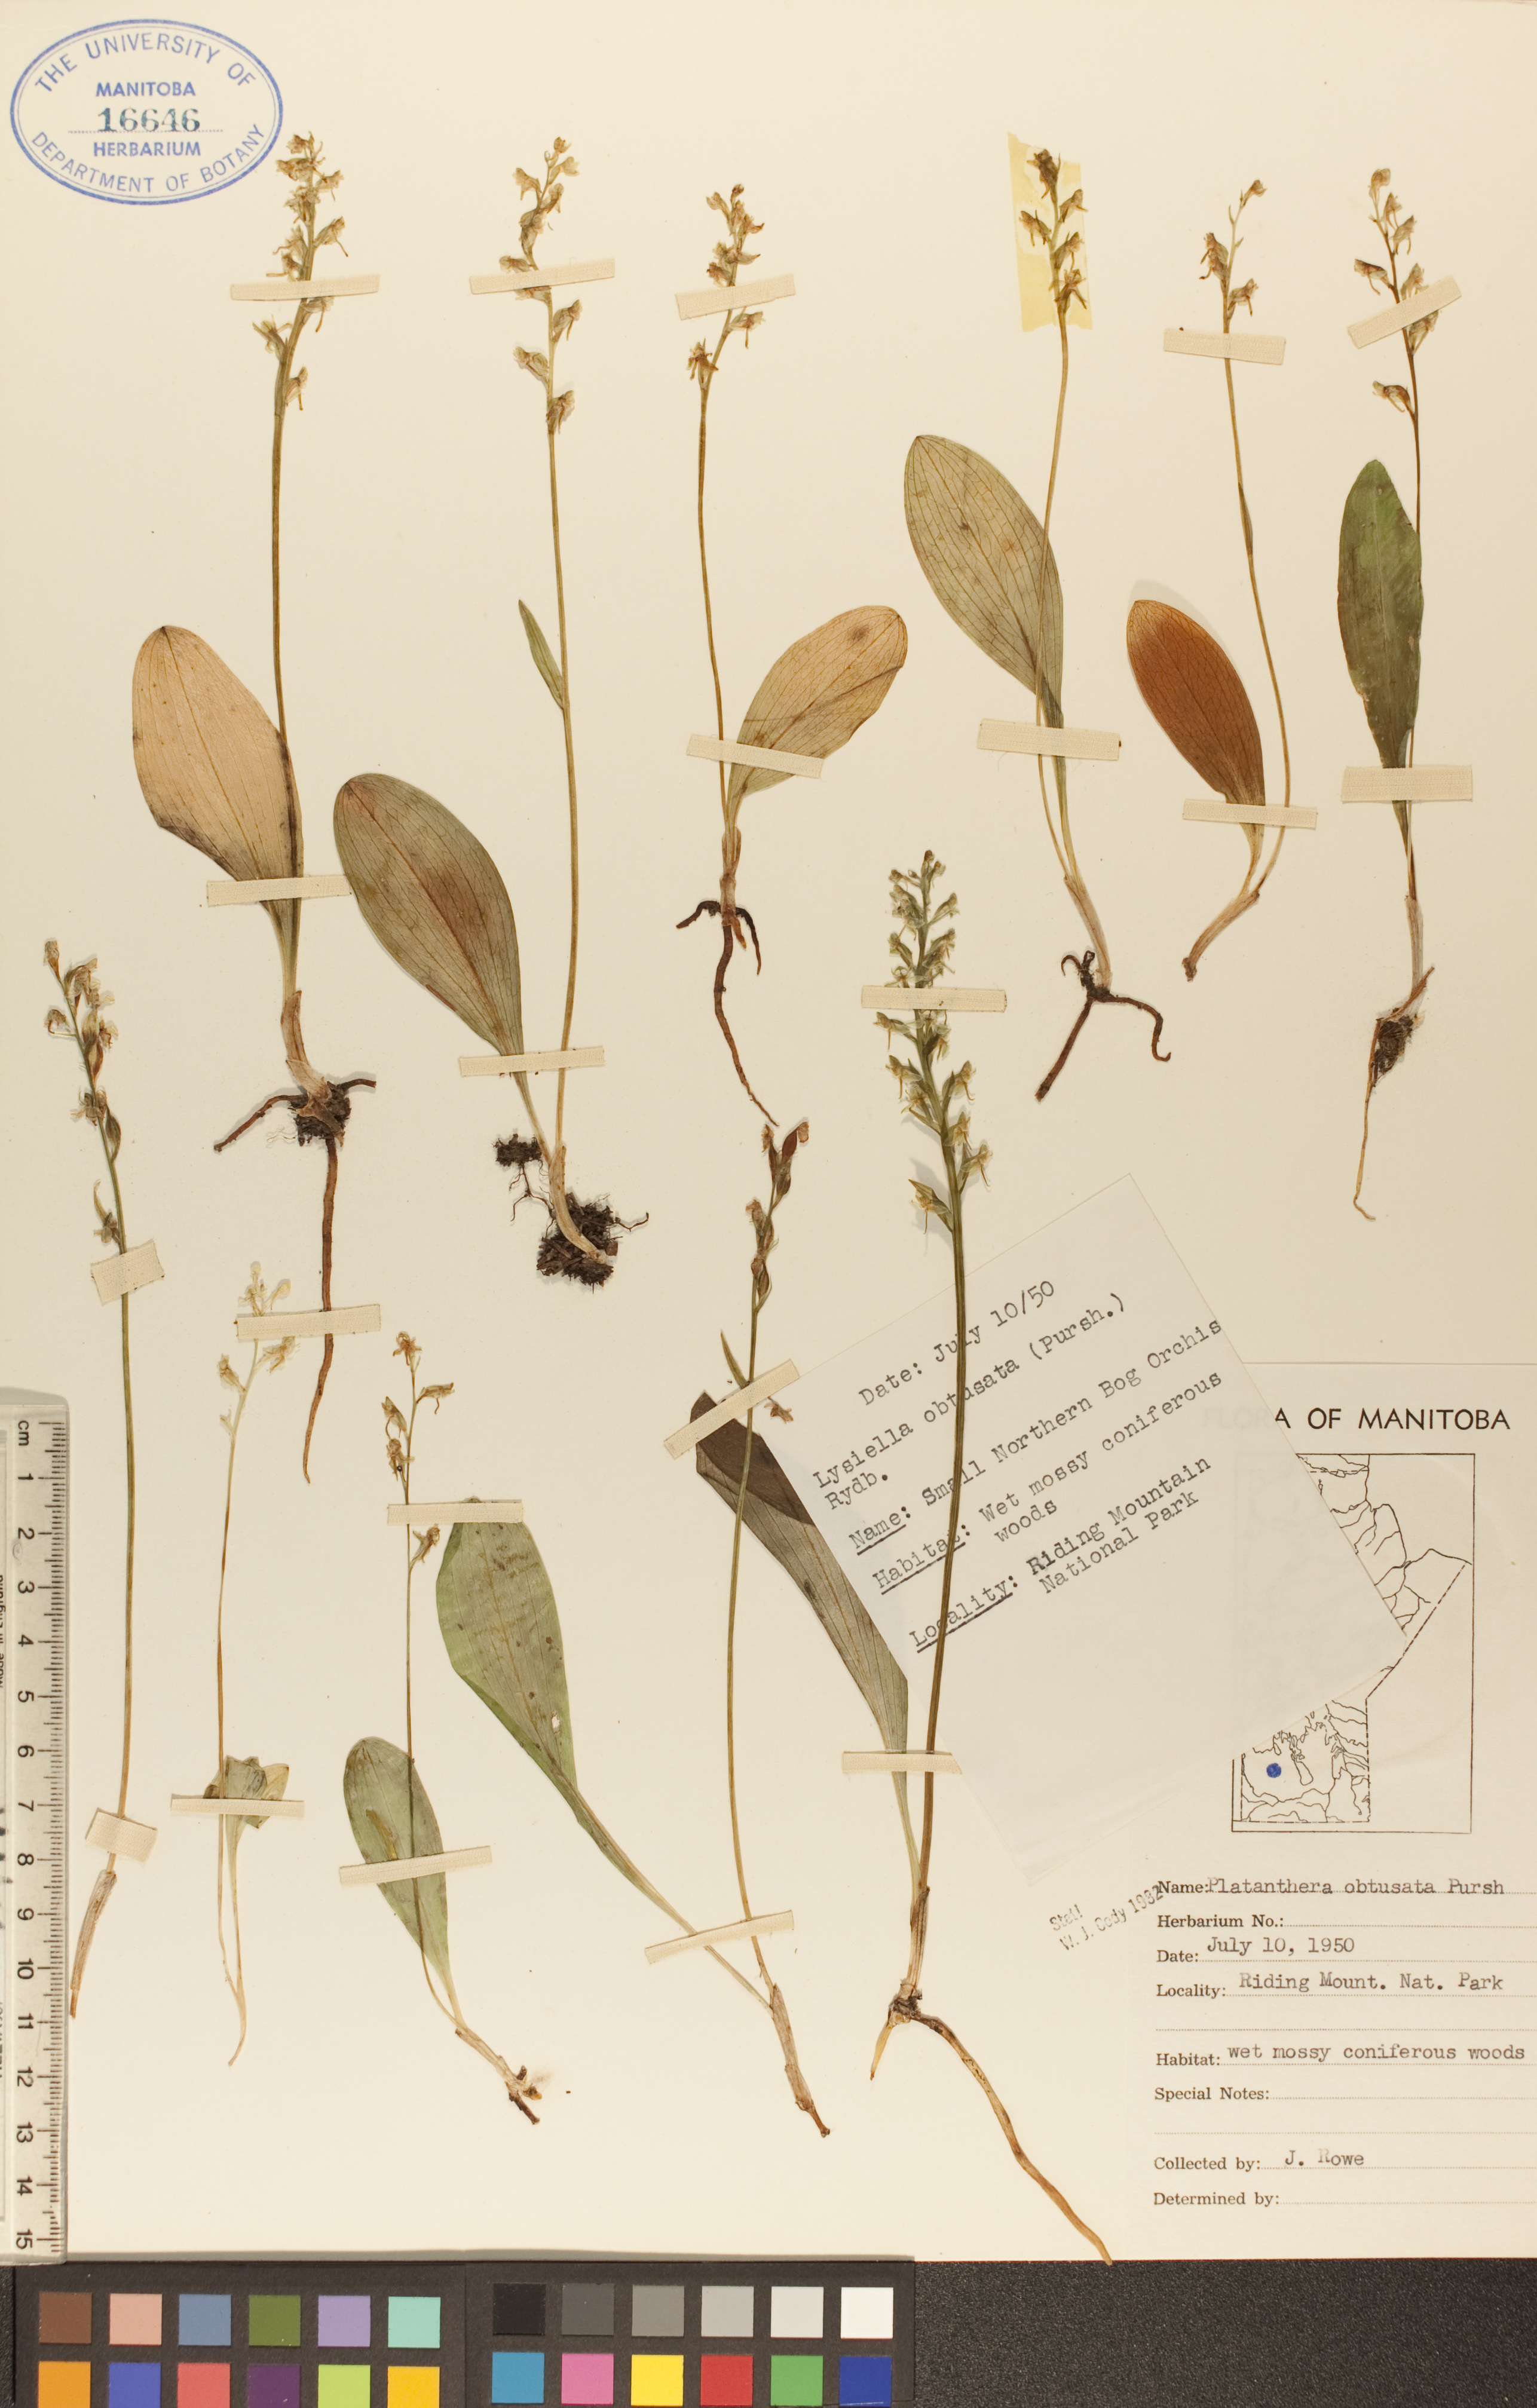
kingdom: Plantae
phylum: Tracheophyta
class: Liliopsida
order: Asparagales
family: Orchidaceae
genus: Platanthera
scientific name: Platanthera obtusata
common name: Blunt bog orchid
